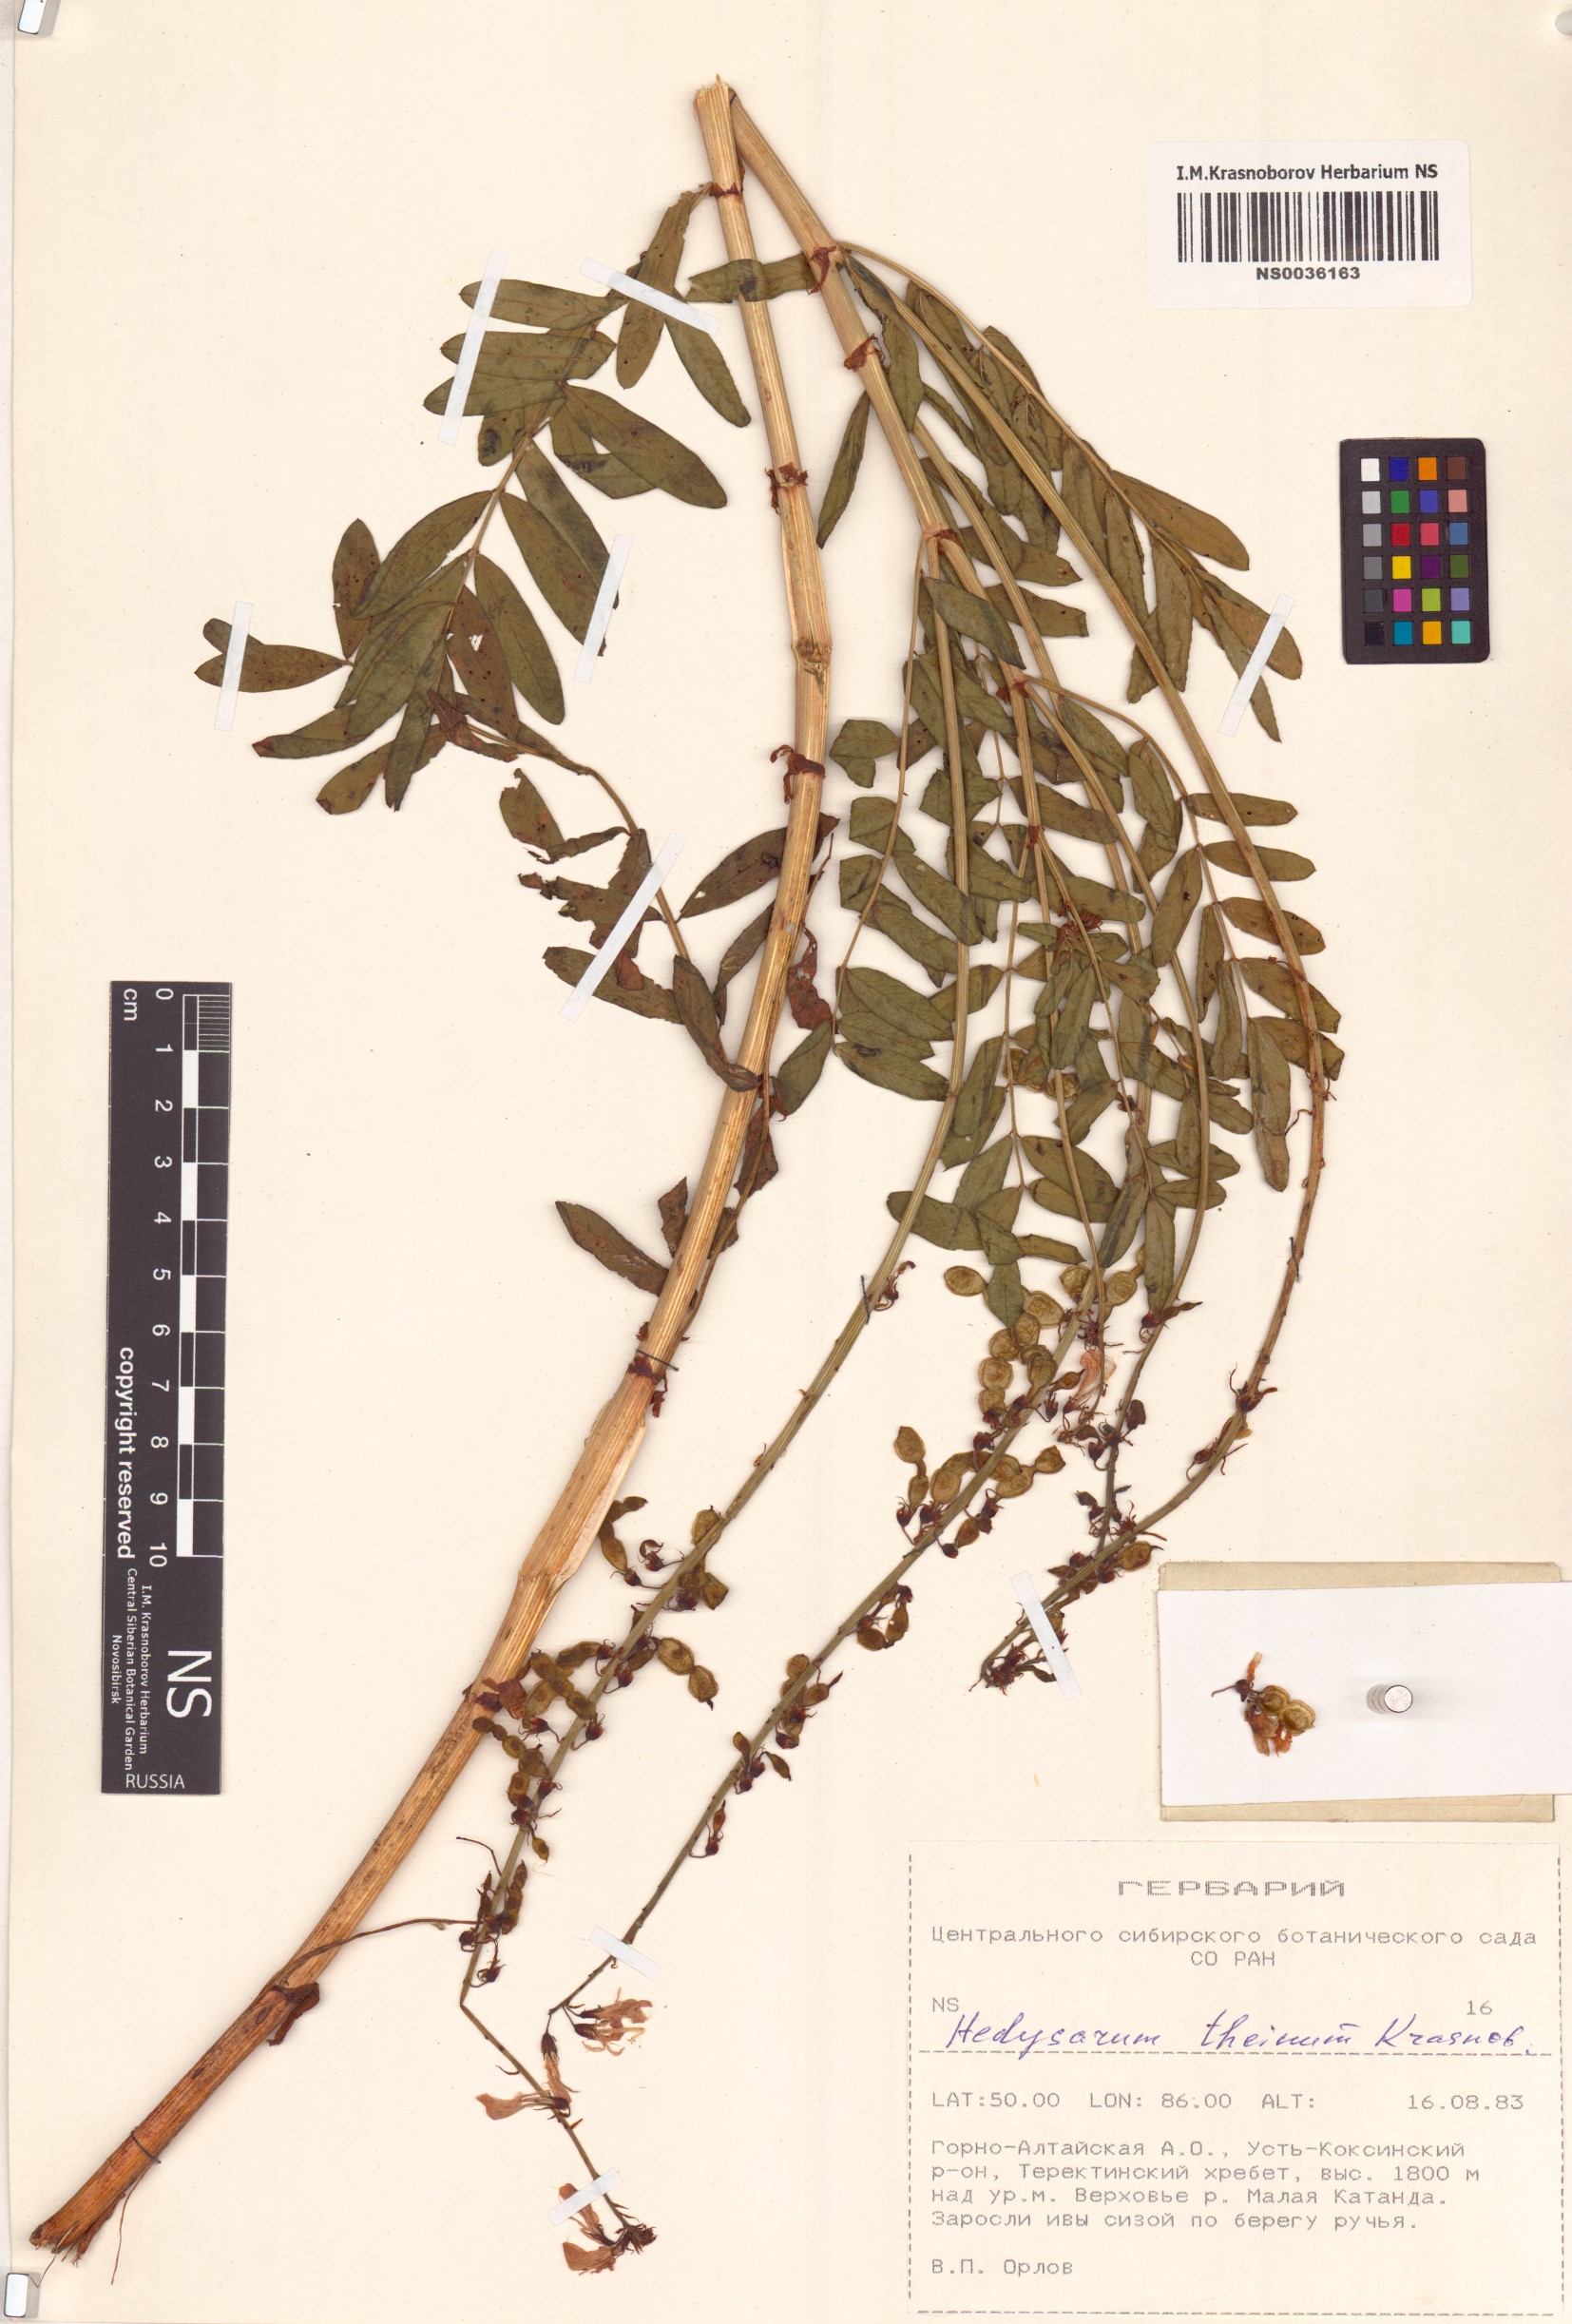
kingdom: Plantae
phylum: Tracheophyta
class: Magnoliopsida
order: Fabales
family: Fabaceae
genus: Hedysarum
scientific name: Hedysarum theinum
